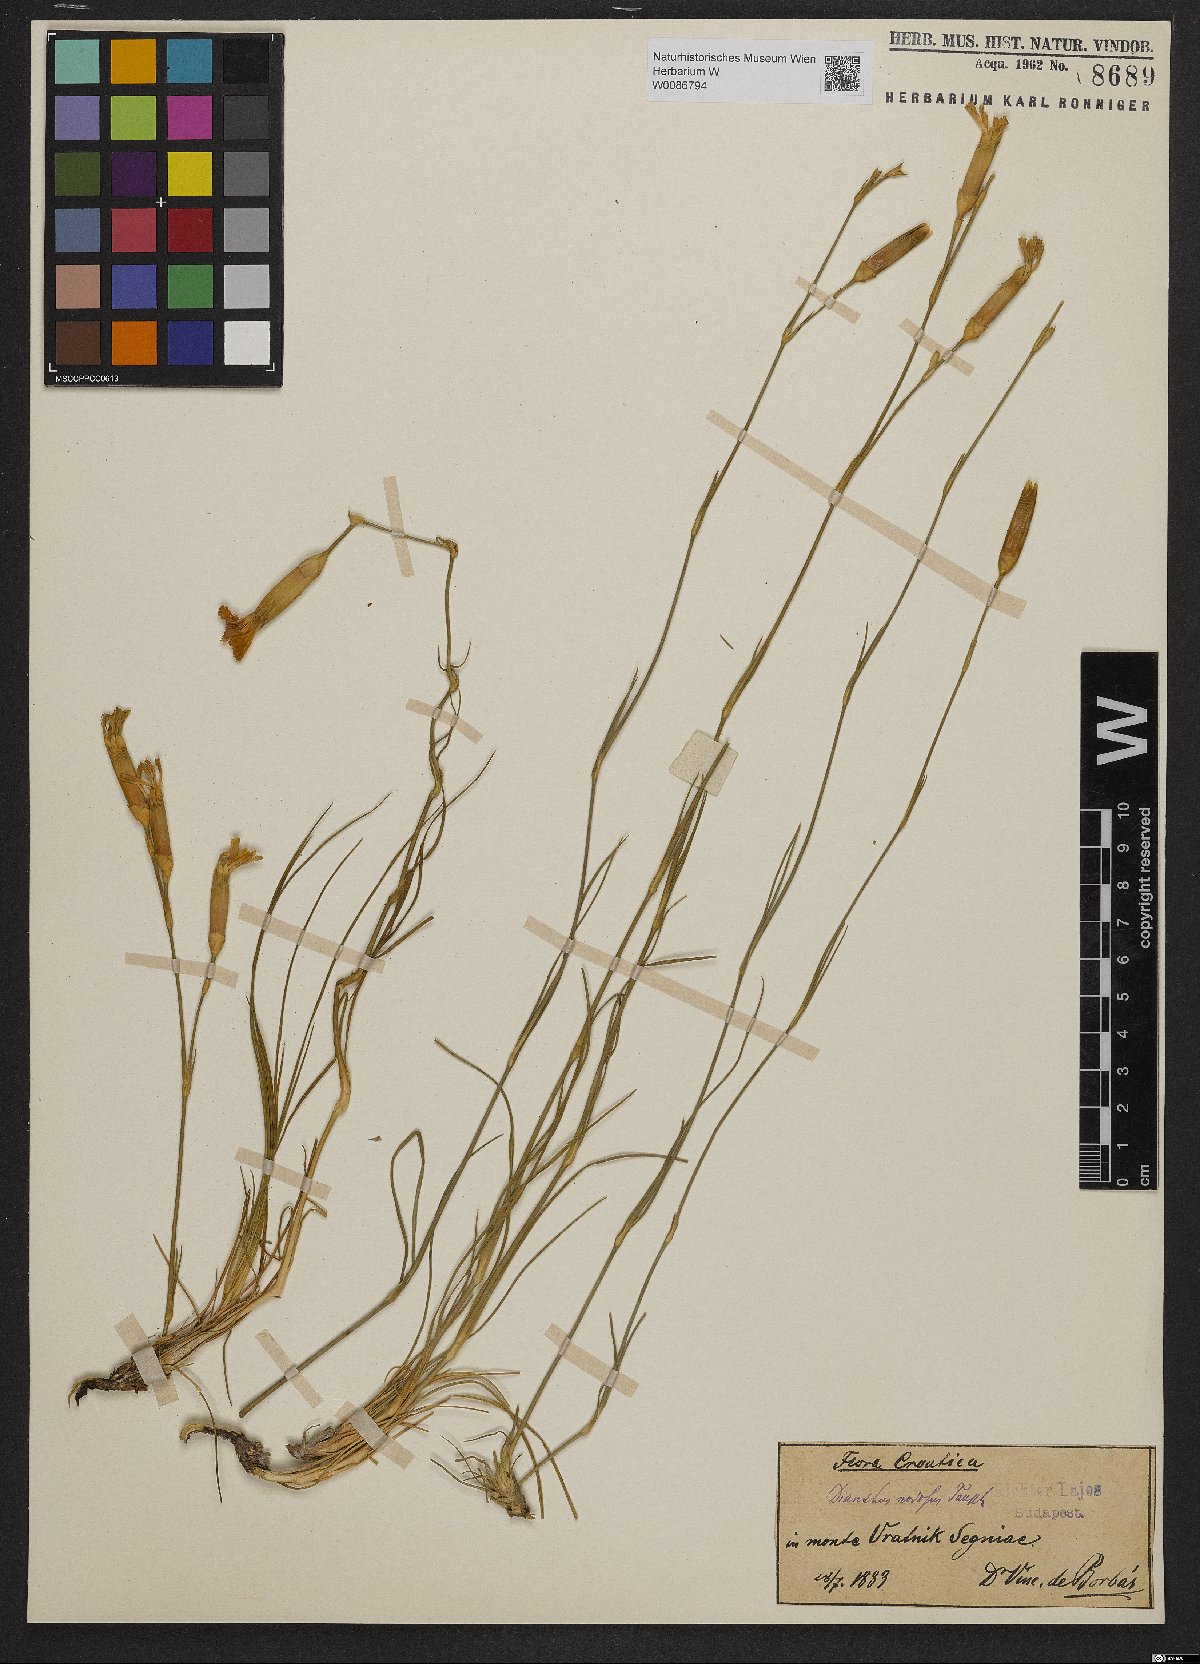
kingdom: Plantae
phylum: Tracheophyta
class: Magnoliopsida
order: Caryophyllales
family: Caryophyllaceae
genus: Dianthus
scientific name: Dianthus sylvestris
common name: Wood pink
